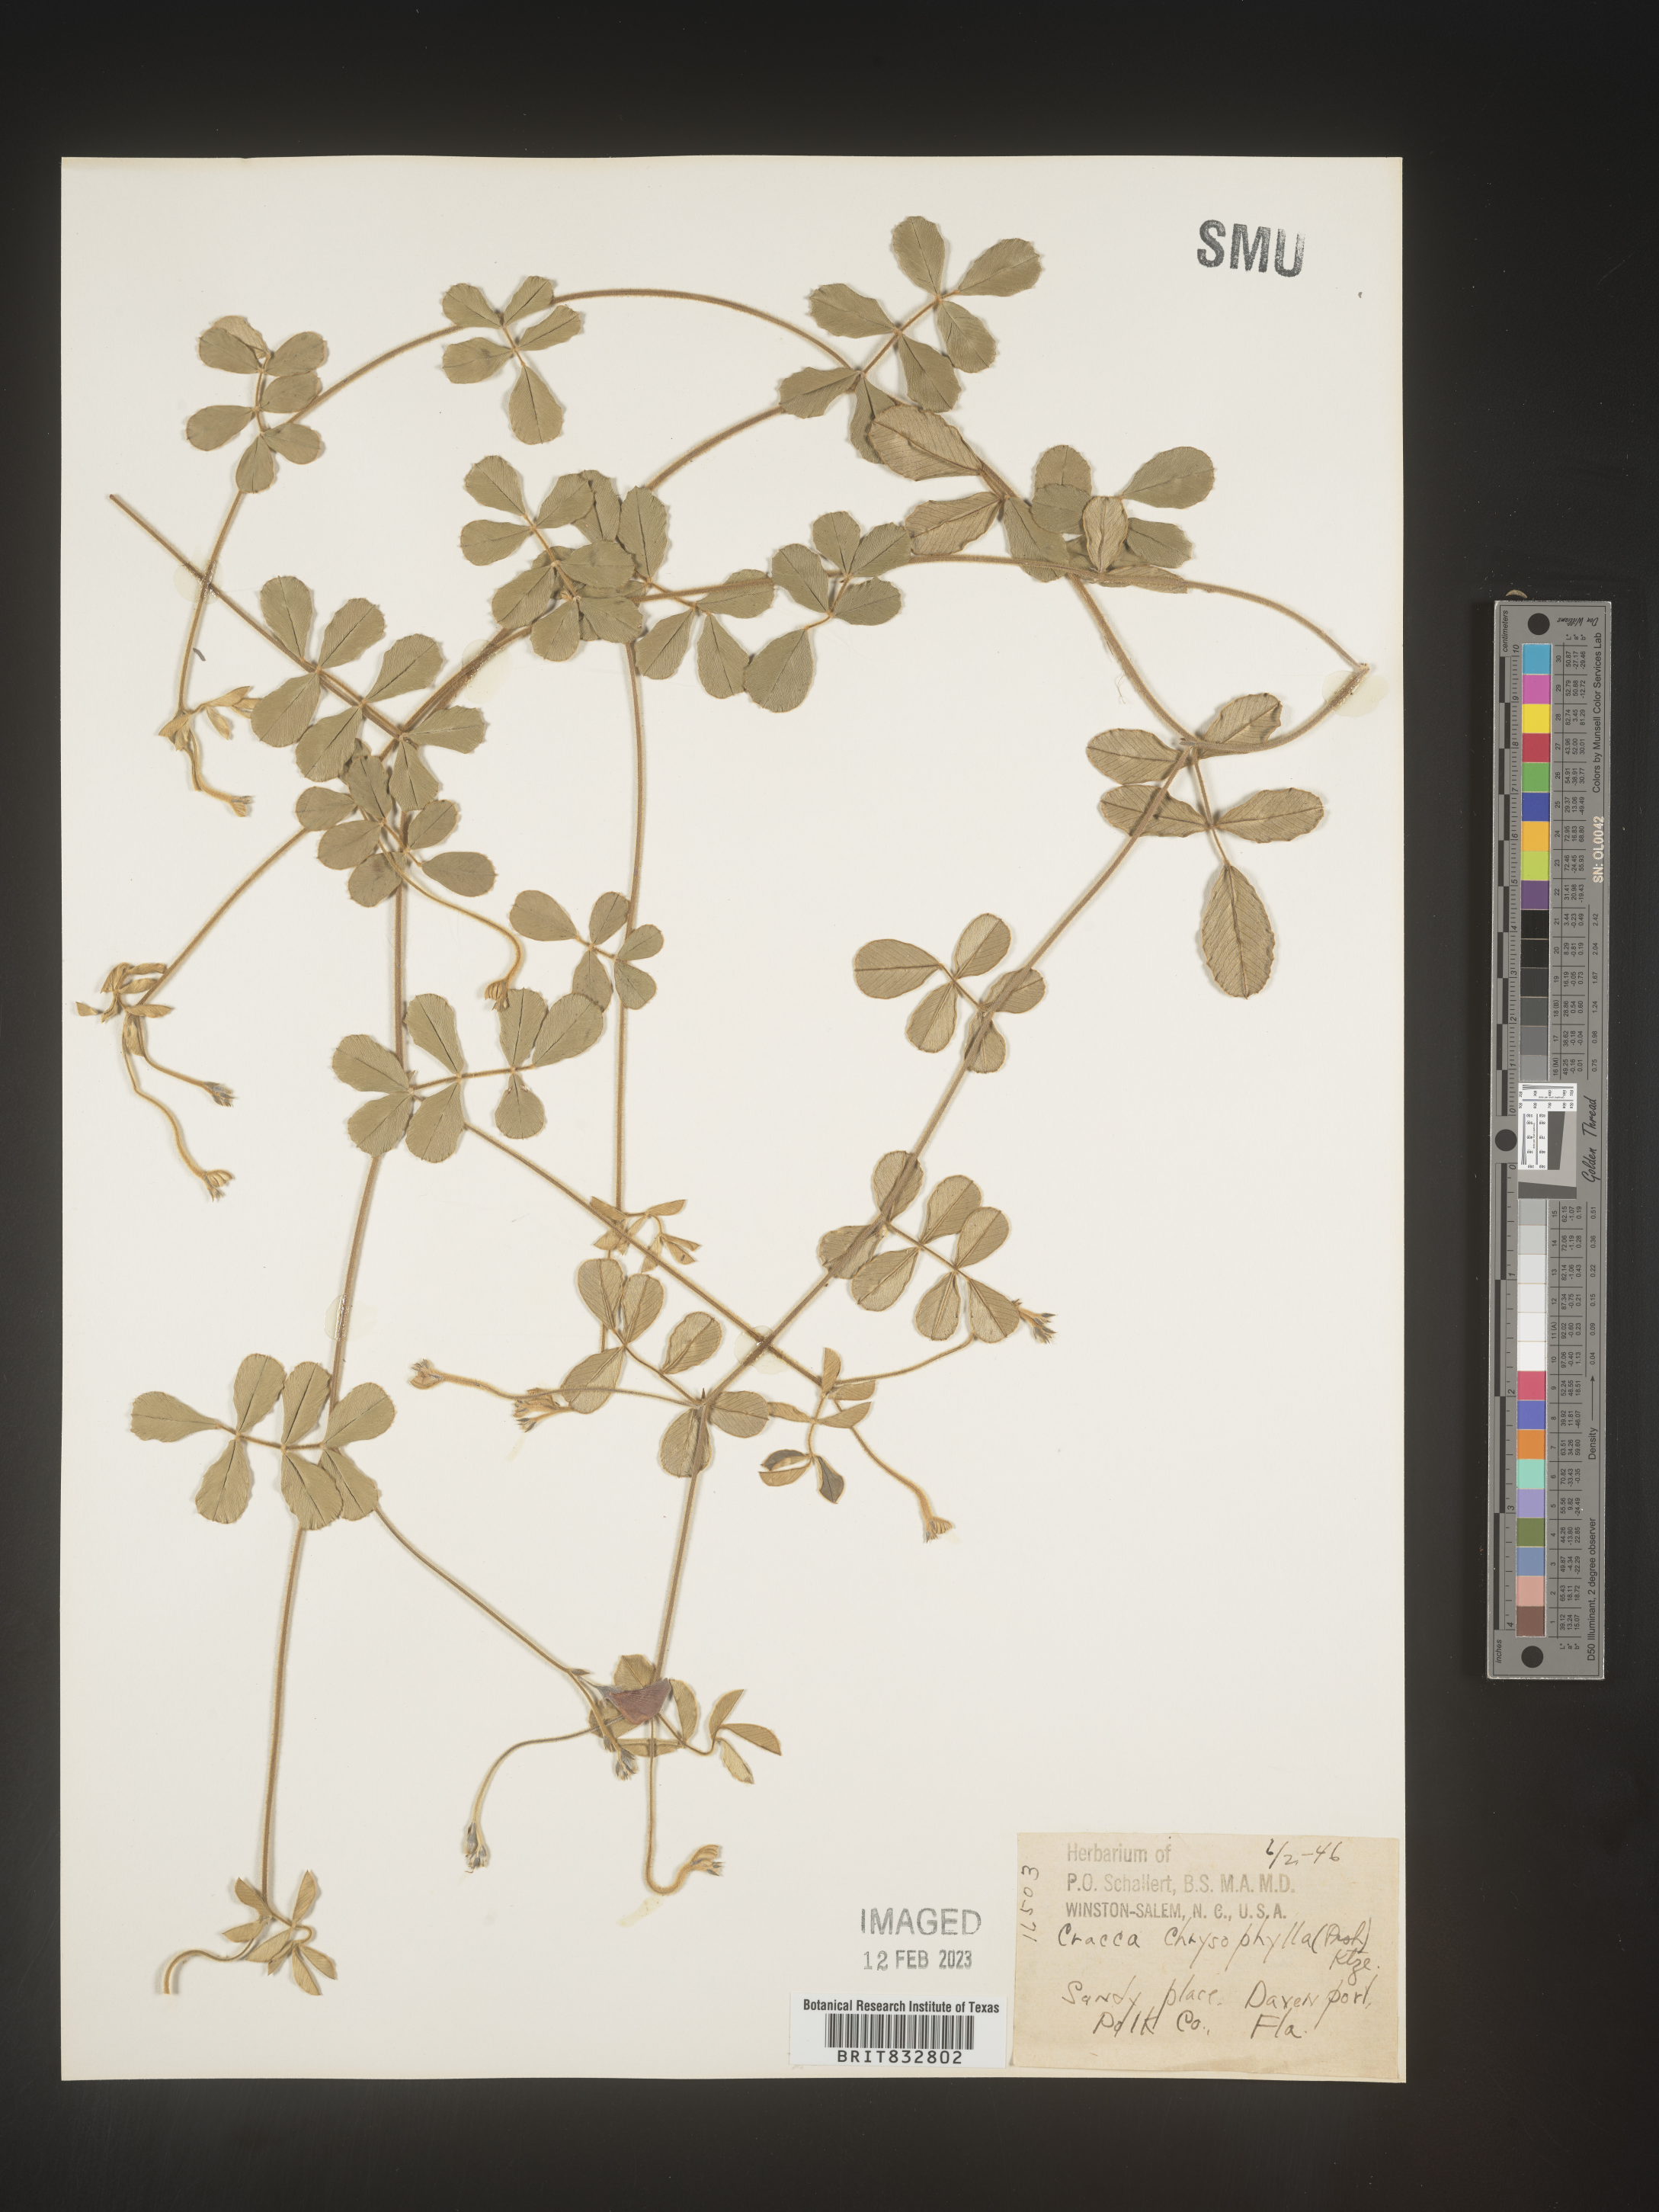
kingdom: Plantae
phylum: Tracheophyta
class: Magnoliopsida
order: Fabales
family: Fabaceae
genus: Tephrosia
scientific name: Tephrosia chrysophylla
